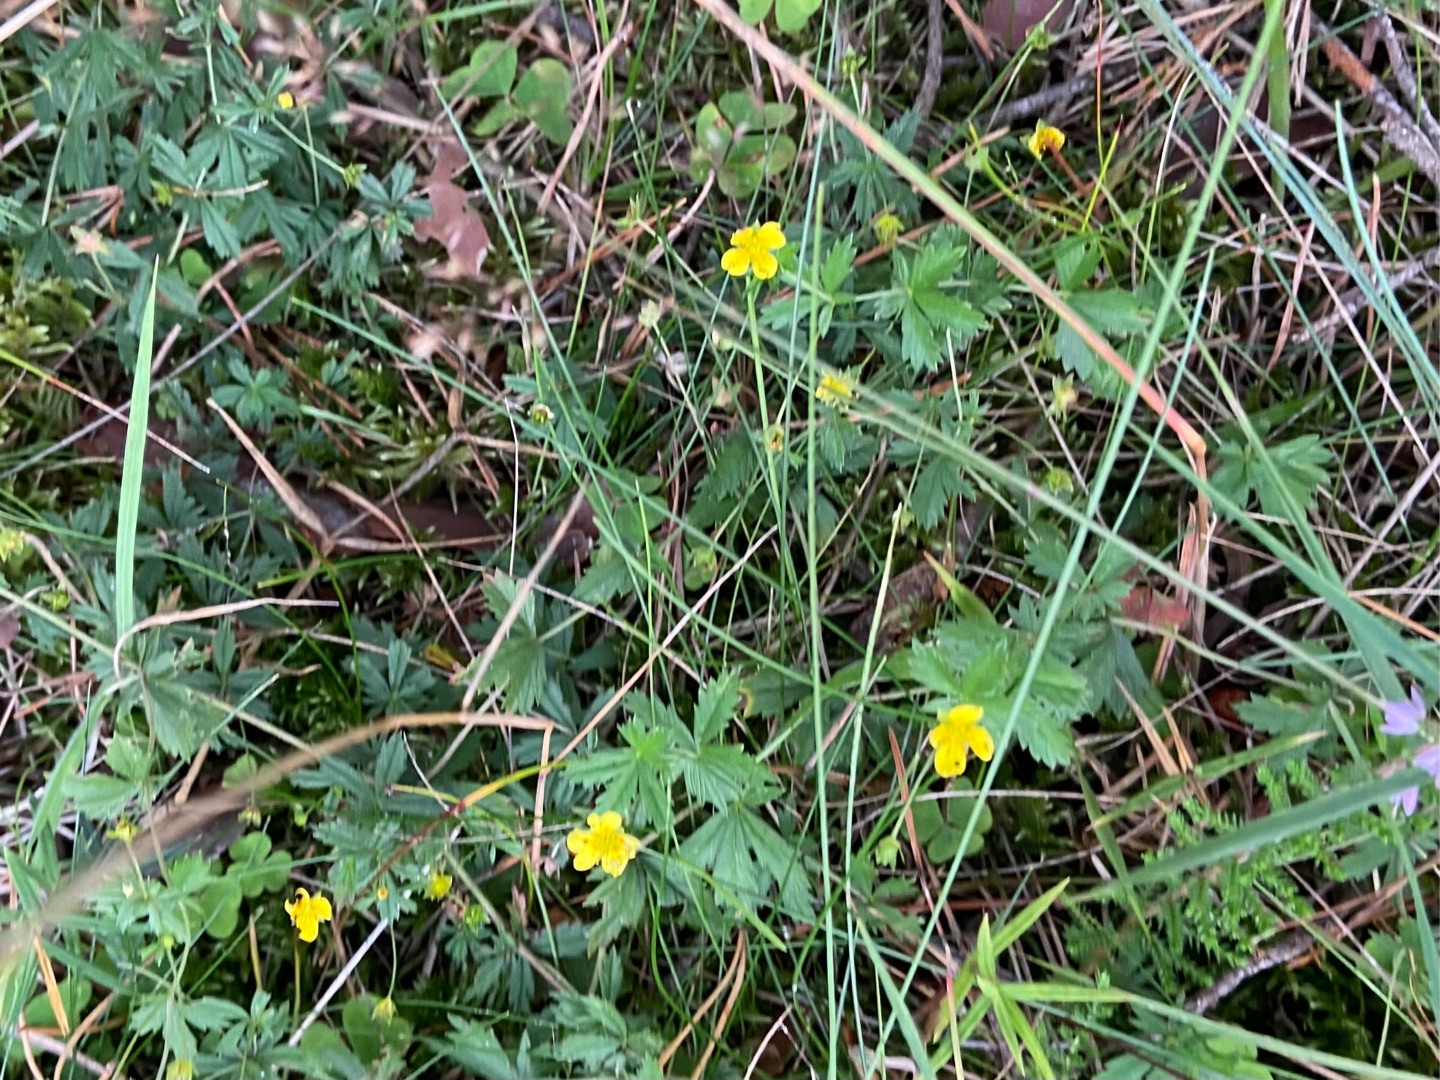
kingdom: Plantae
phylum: Tracheophyta
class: Magnoliopsida
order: Rosales
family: Rosaceae
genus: Potentilla
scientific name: Potentilla erecta
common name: Tormentil
